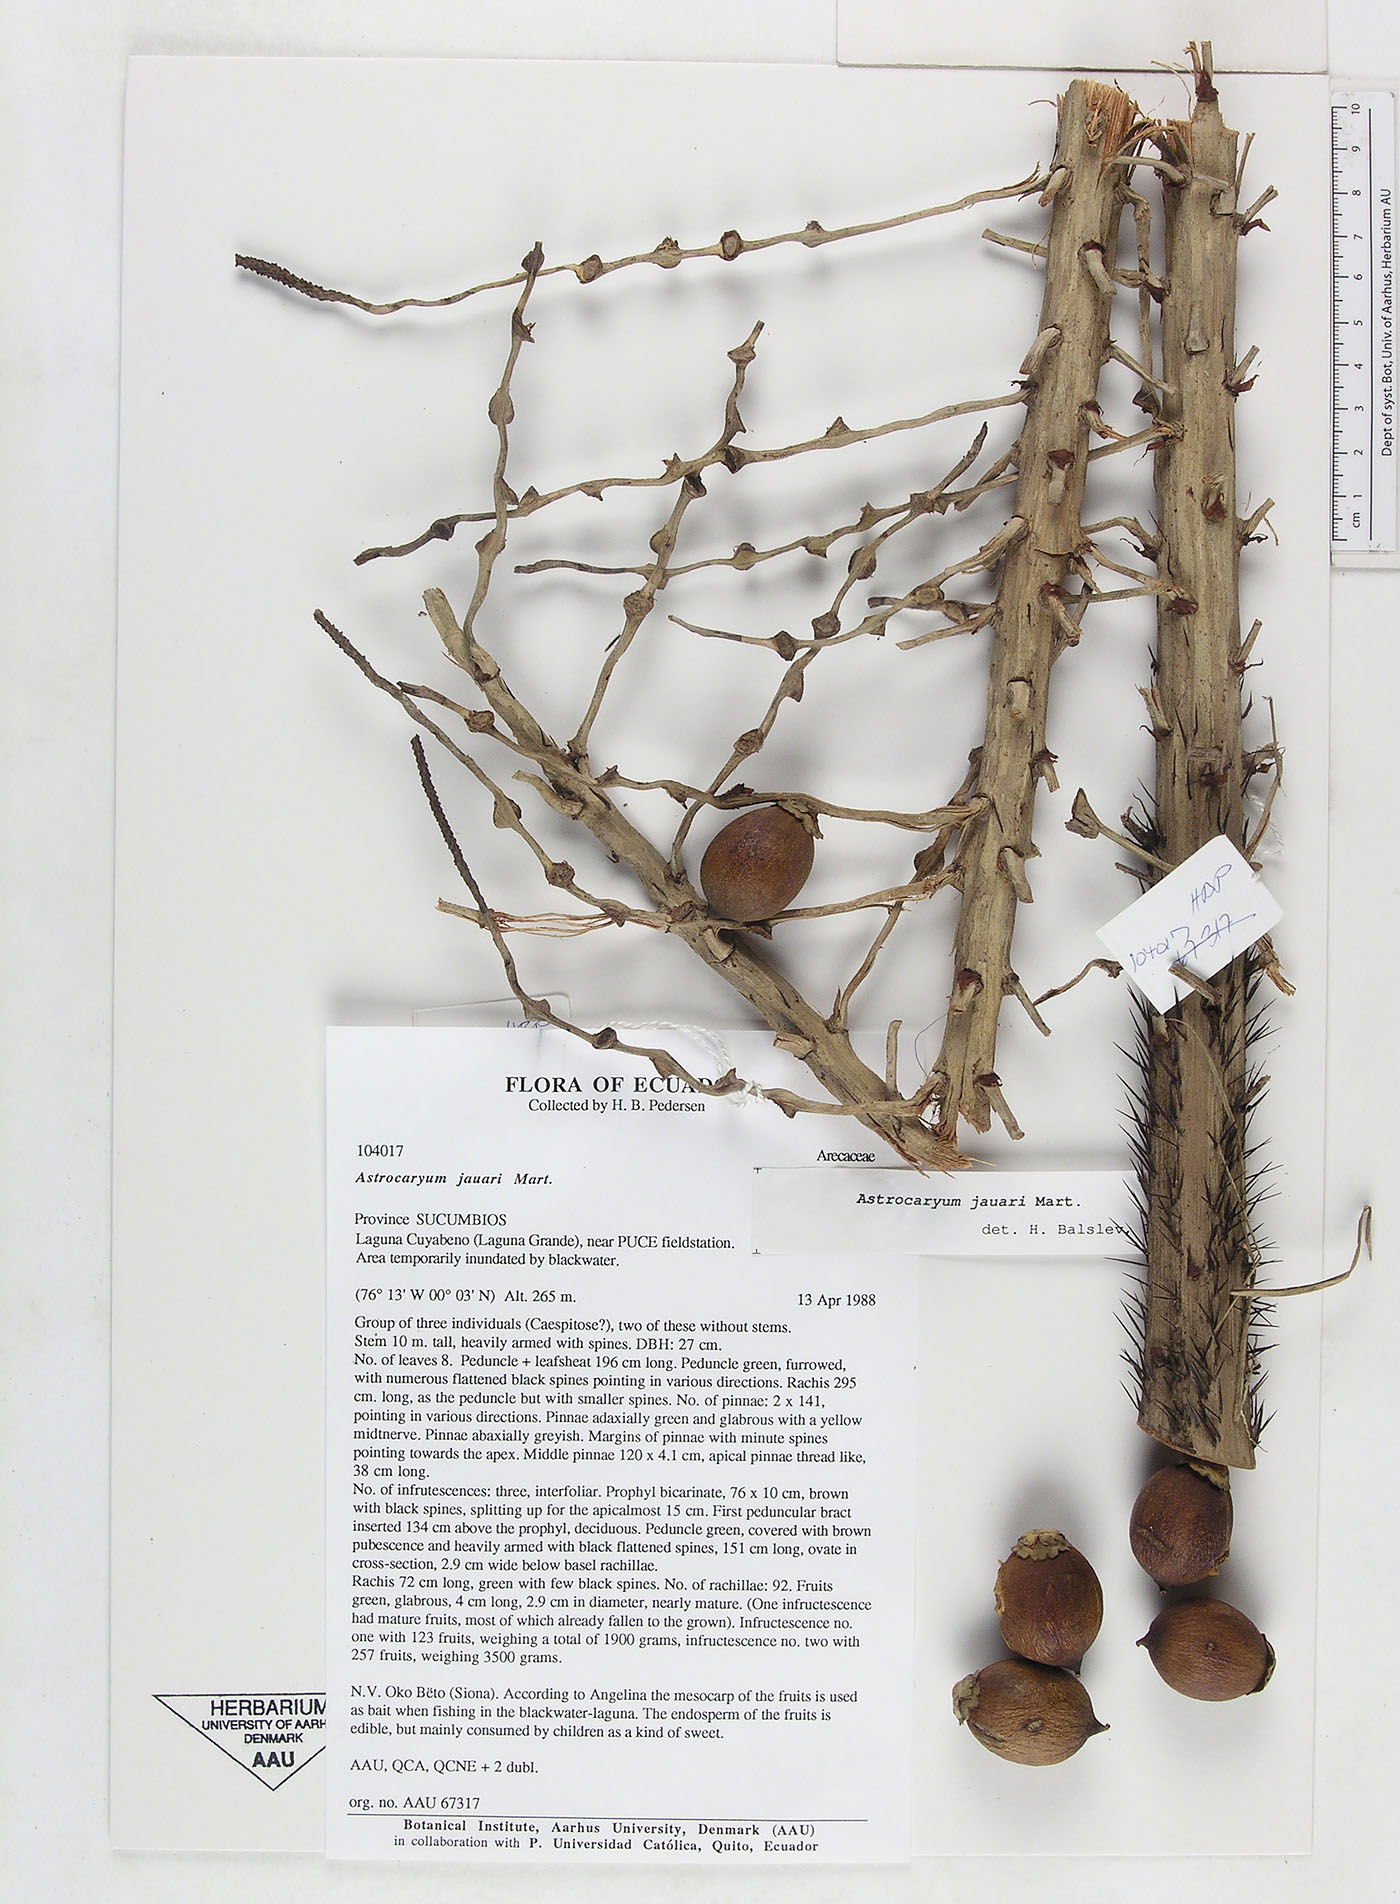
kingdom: Plantae
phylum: Tracheophyta
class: Liliopsida
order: Arecales
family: Arecaceae
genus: Astrocaryum
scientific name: Astrocaryum jauari
